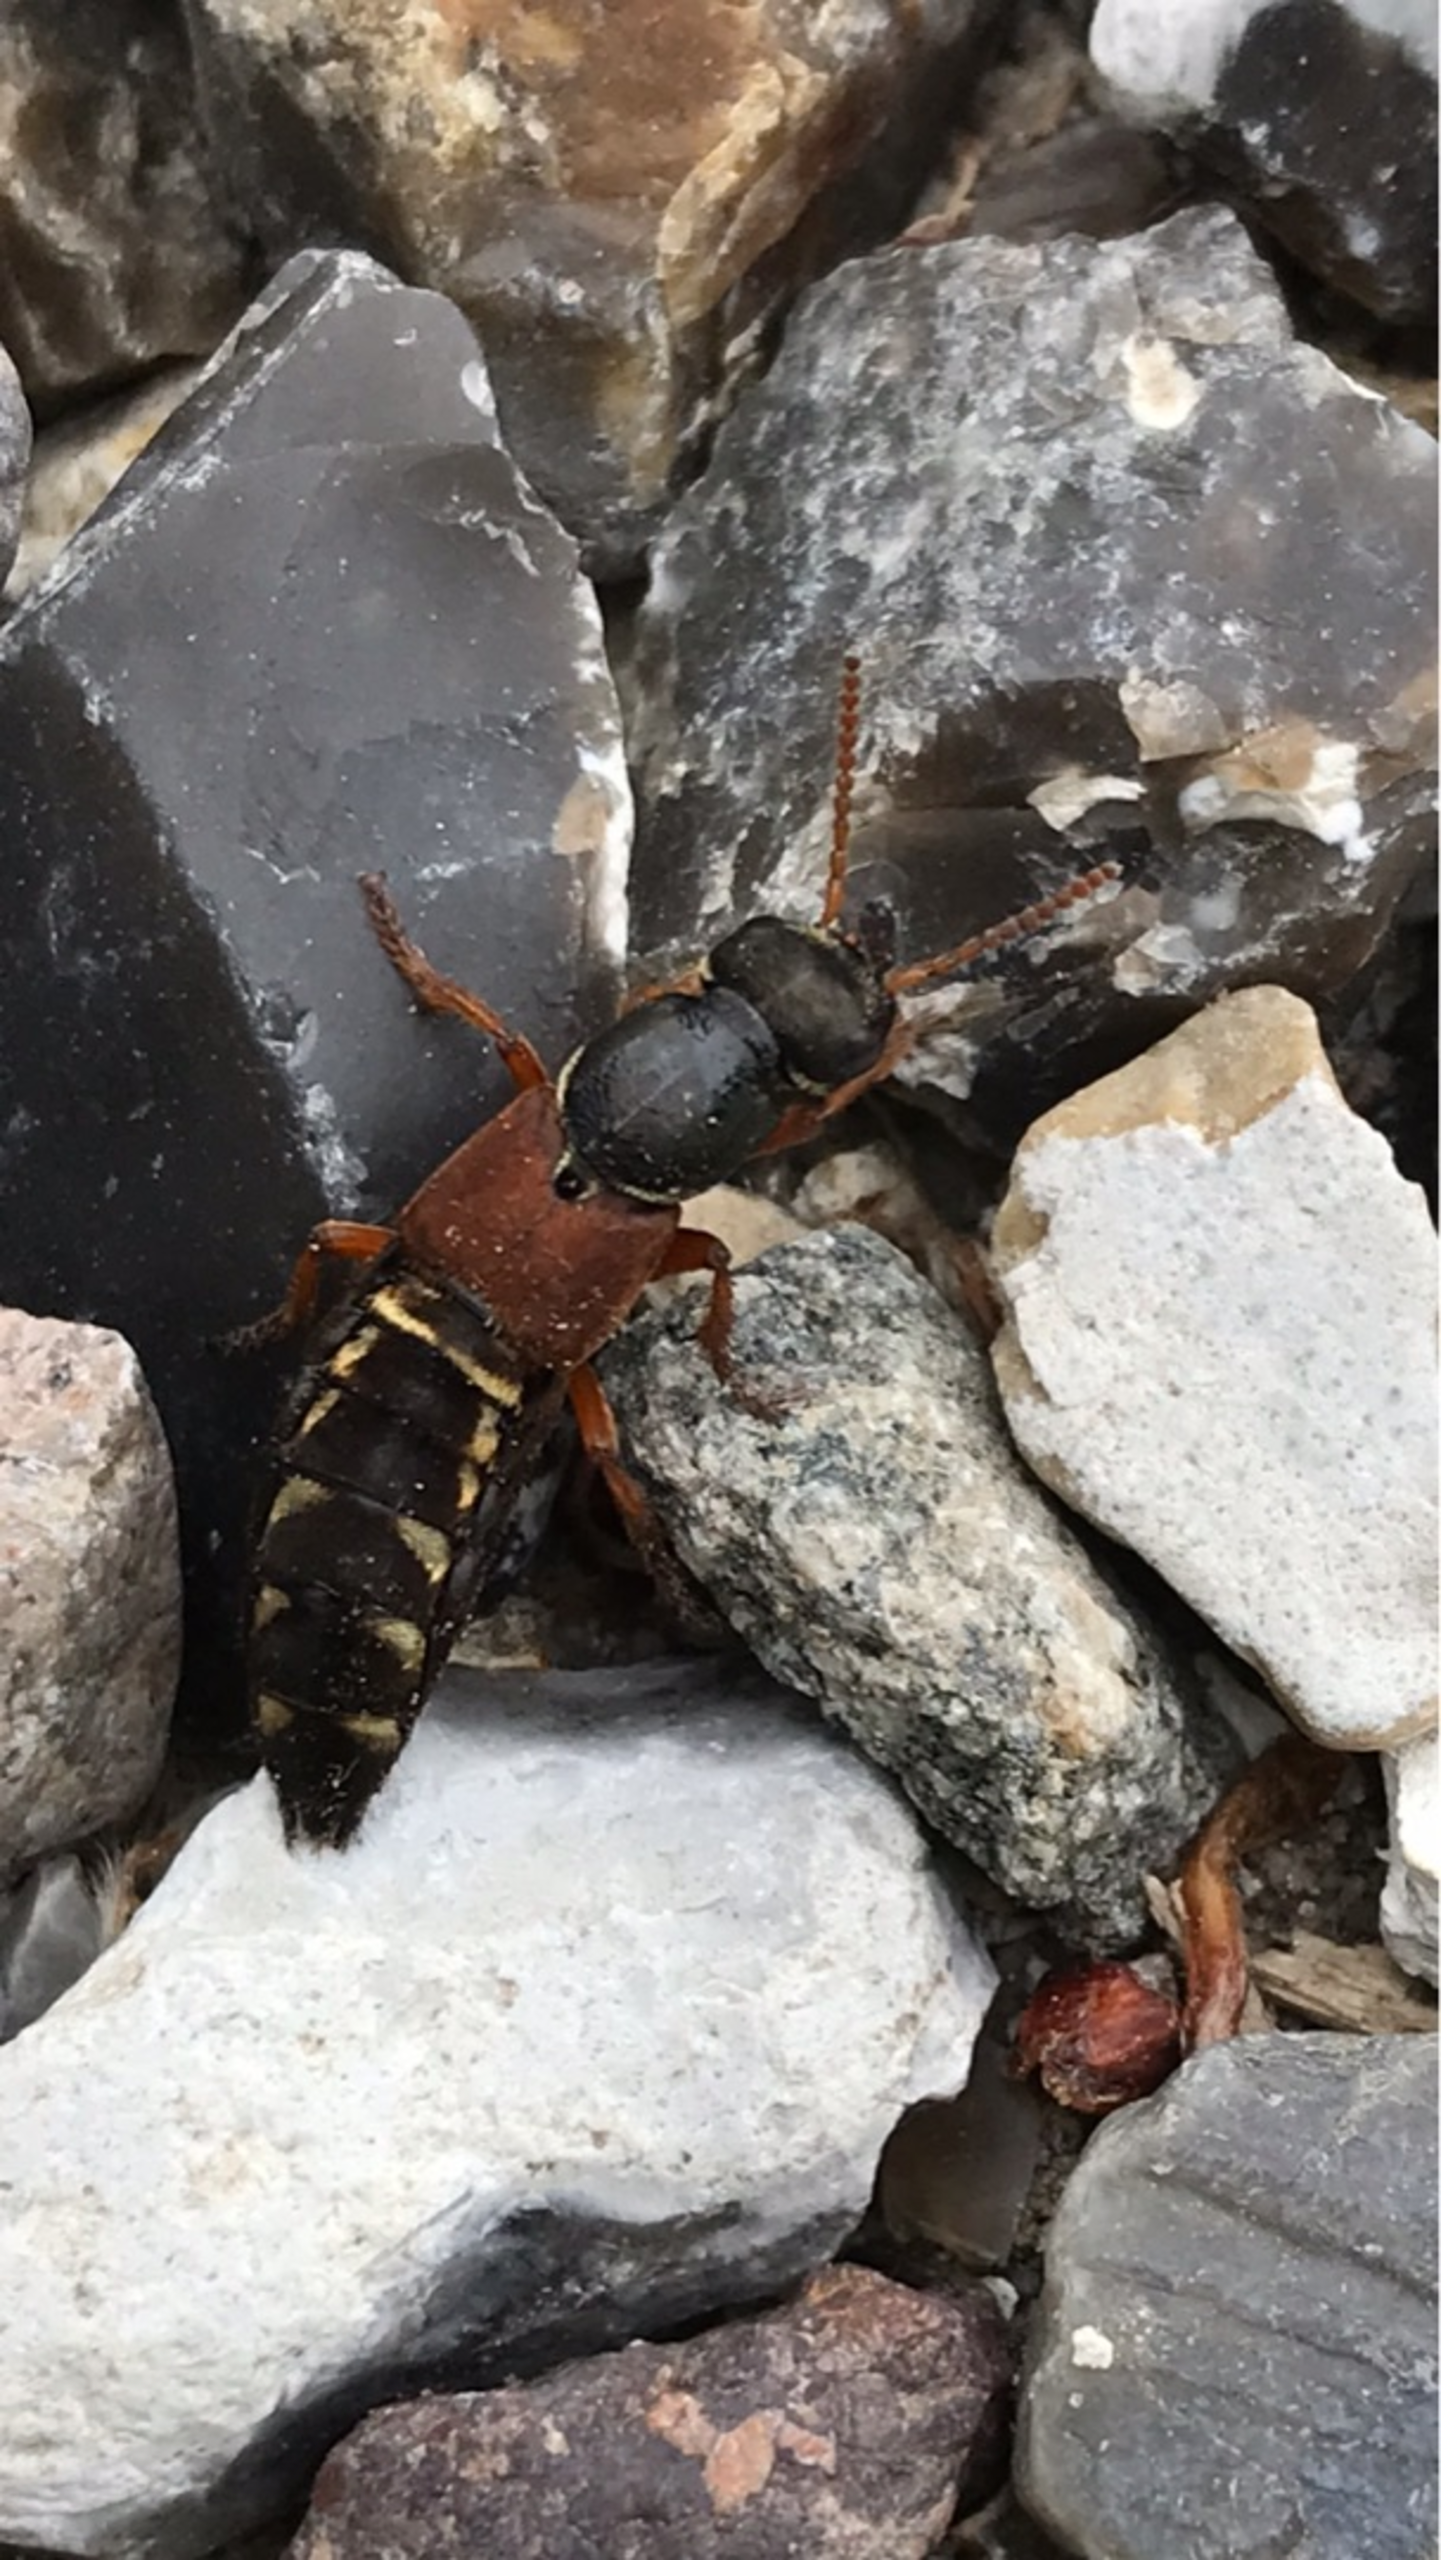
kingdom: Animalia
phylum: Arthropoda
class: Insecta
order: Coleoptera
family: Staphylinidae
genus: Staphylinus
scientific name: Staphylinus caesareus
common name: Kejserrovbille
